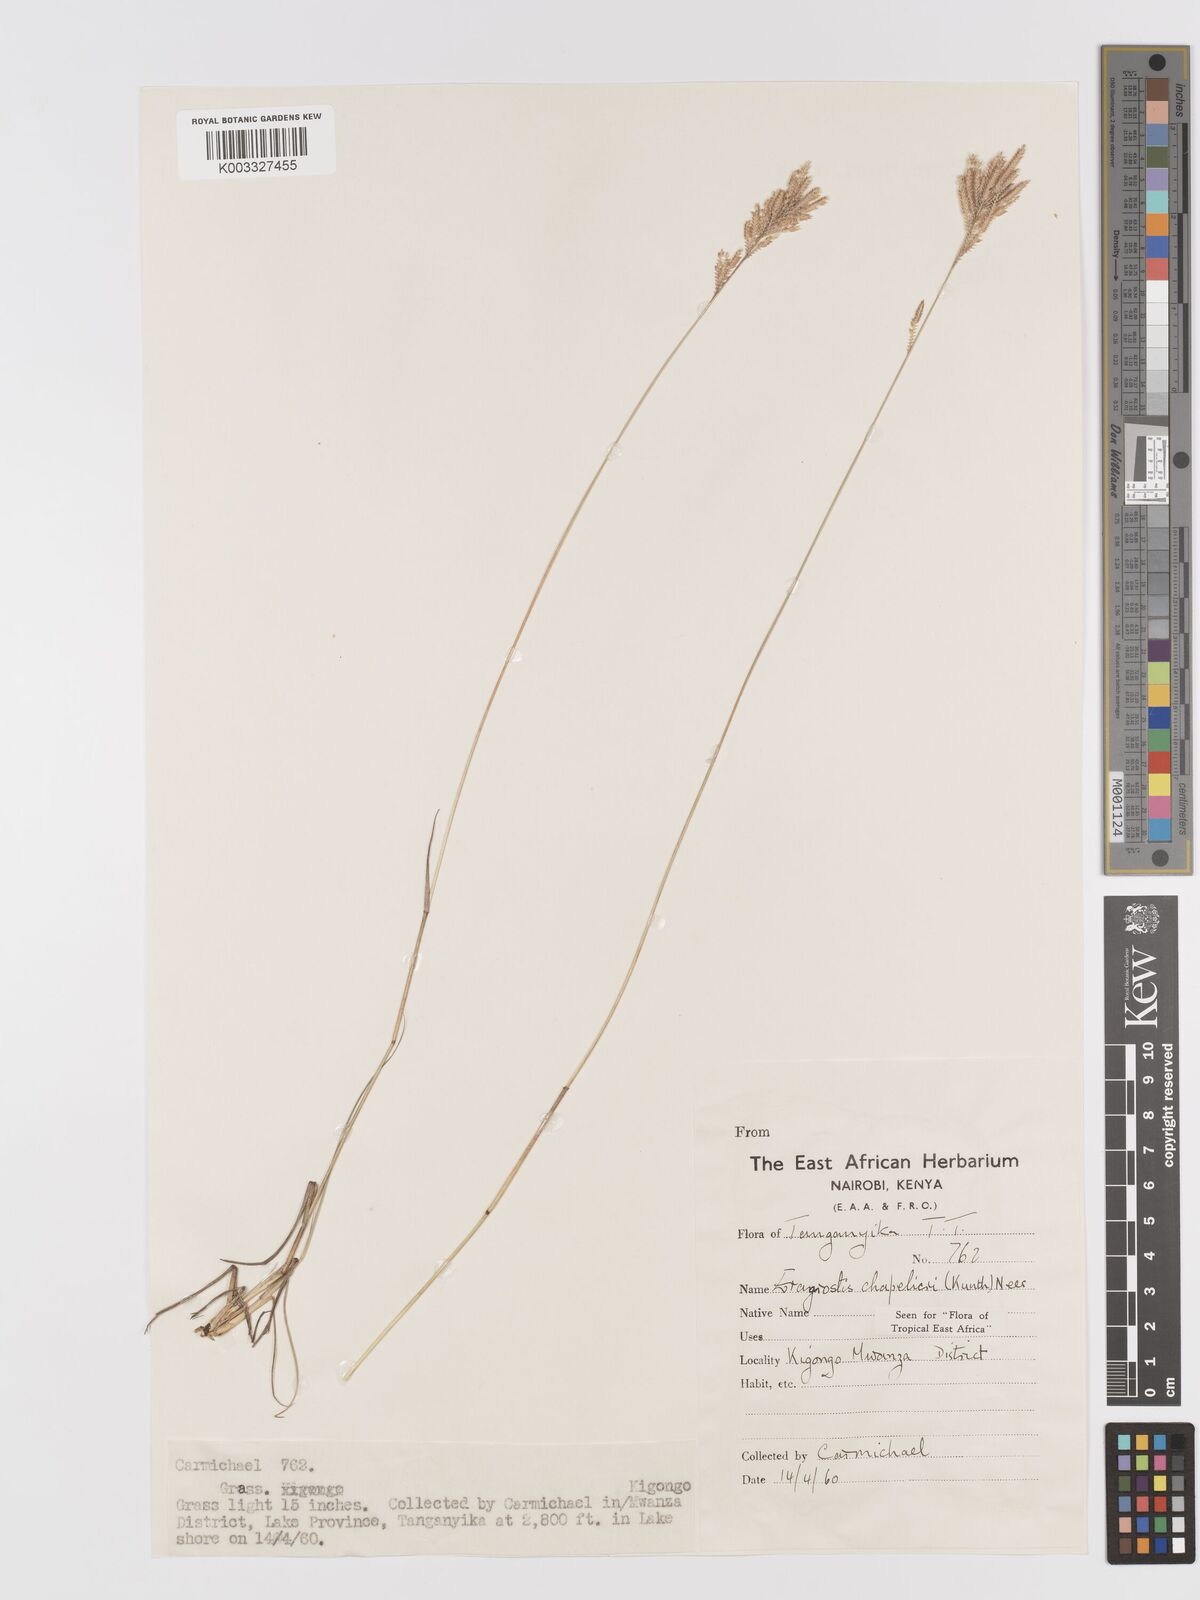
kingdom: Plantae
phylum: Tracheophyta
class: Liliopsida
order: Poales
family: Poaceae
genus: Eragrostis
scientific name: Eragrostis chapelieri
